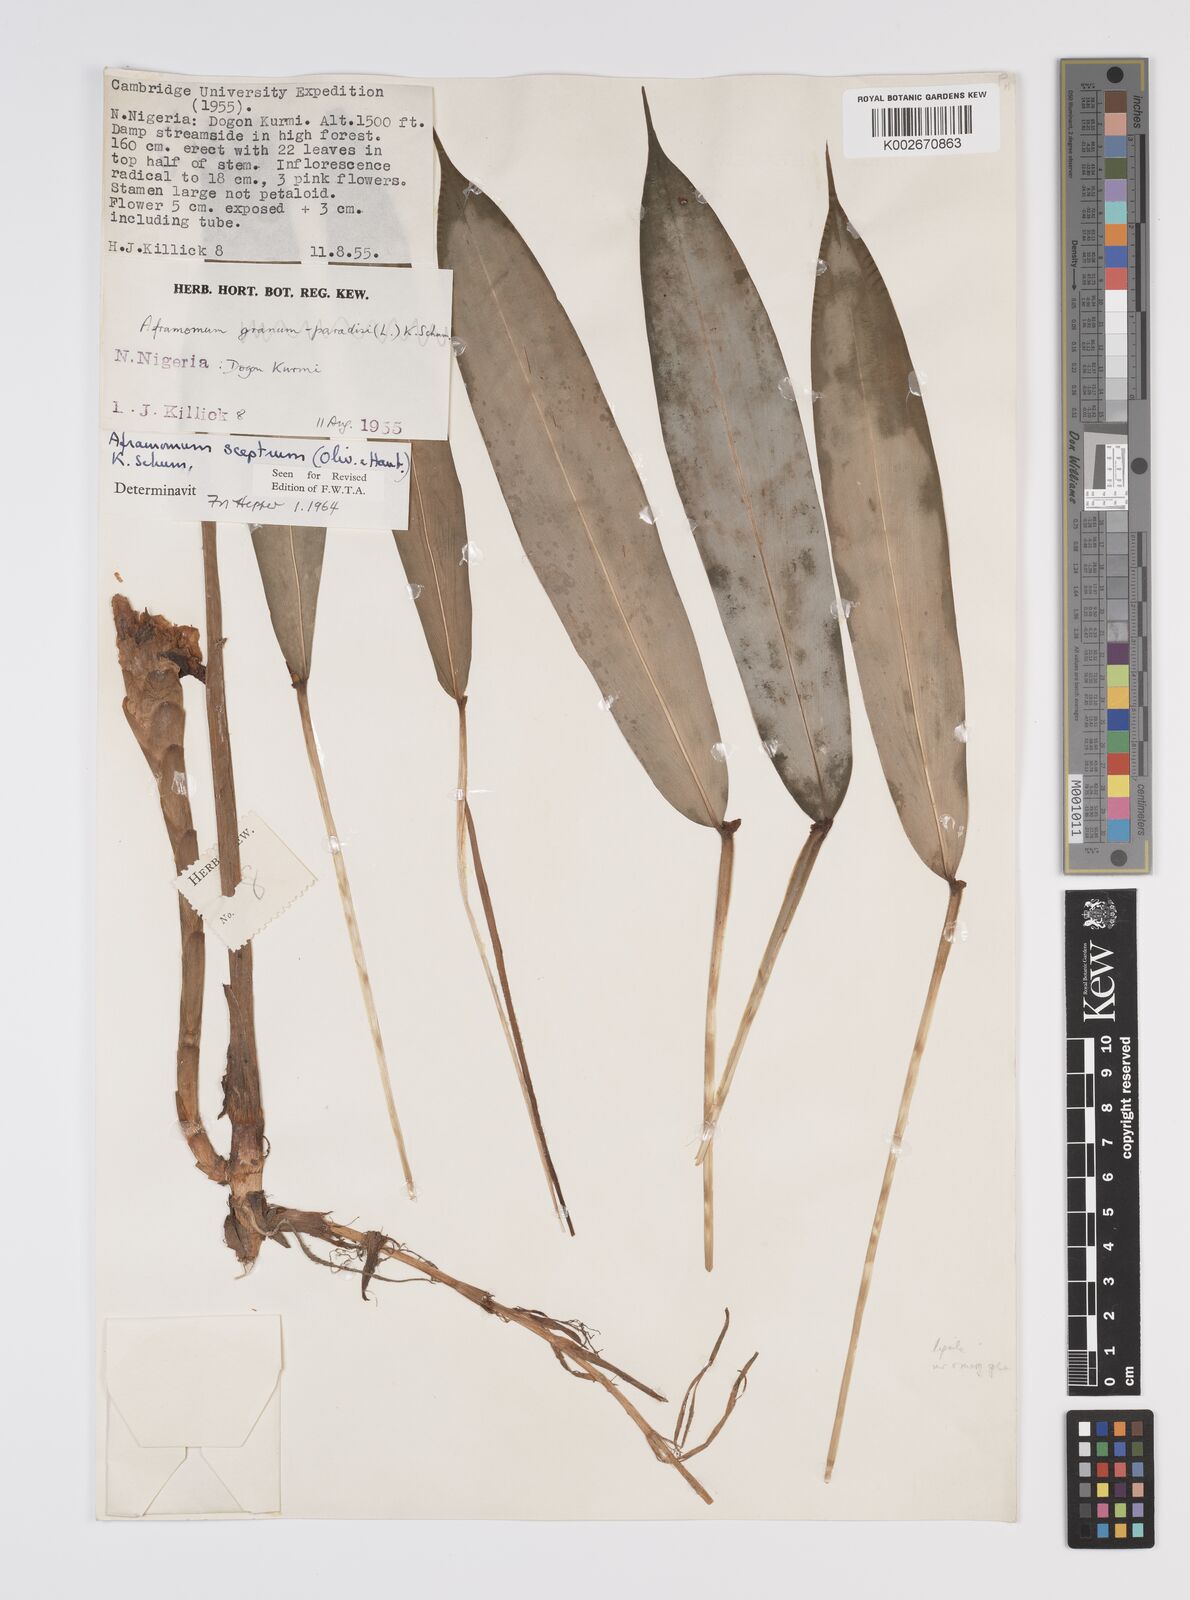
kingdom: Plantae
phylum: Tracheophyta
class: Liliopsida
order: Zingiberales
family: Zingiberaceae
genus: Aframomum
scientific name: Aframomum cereum
